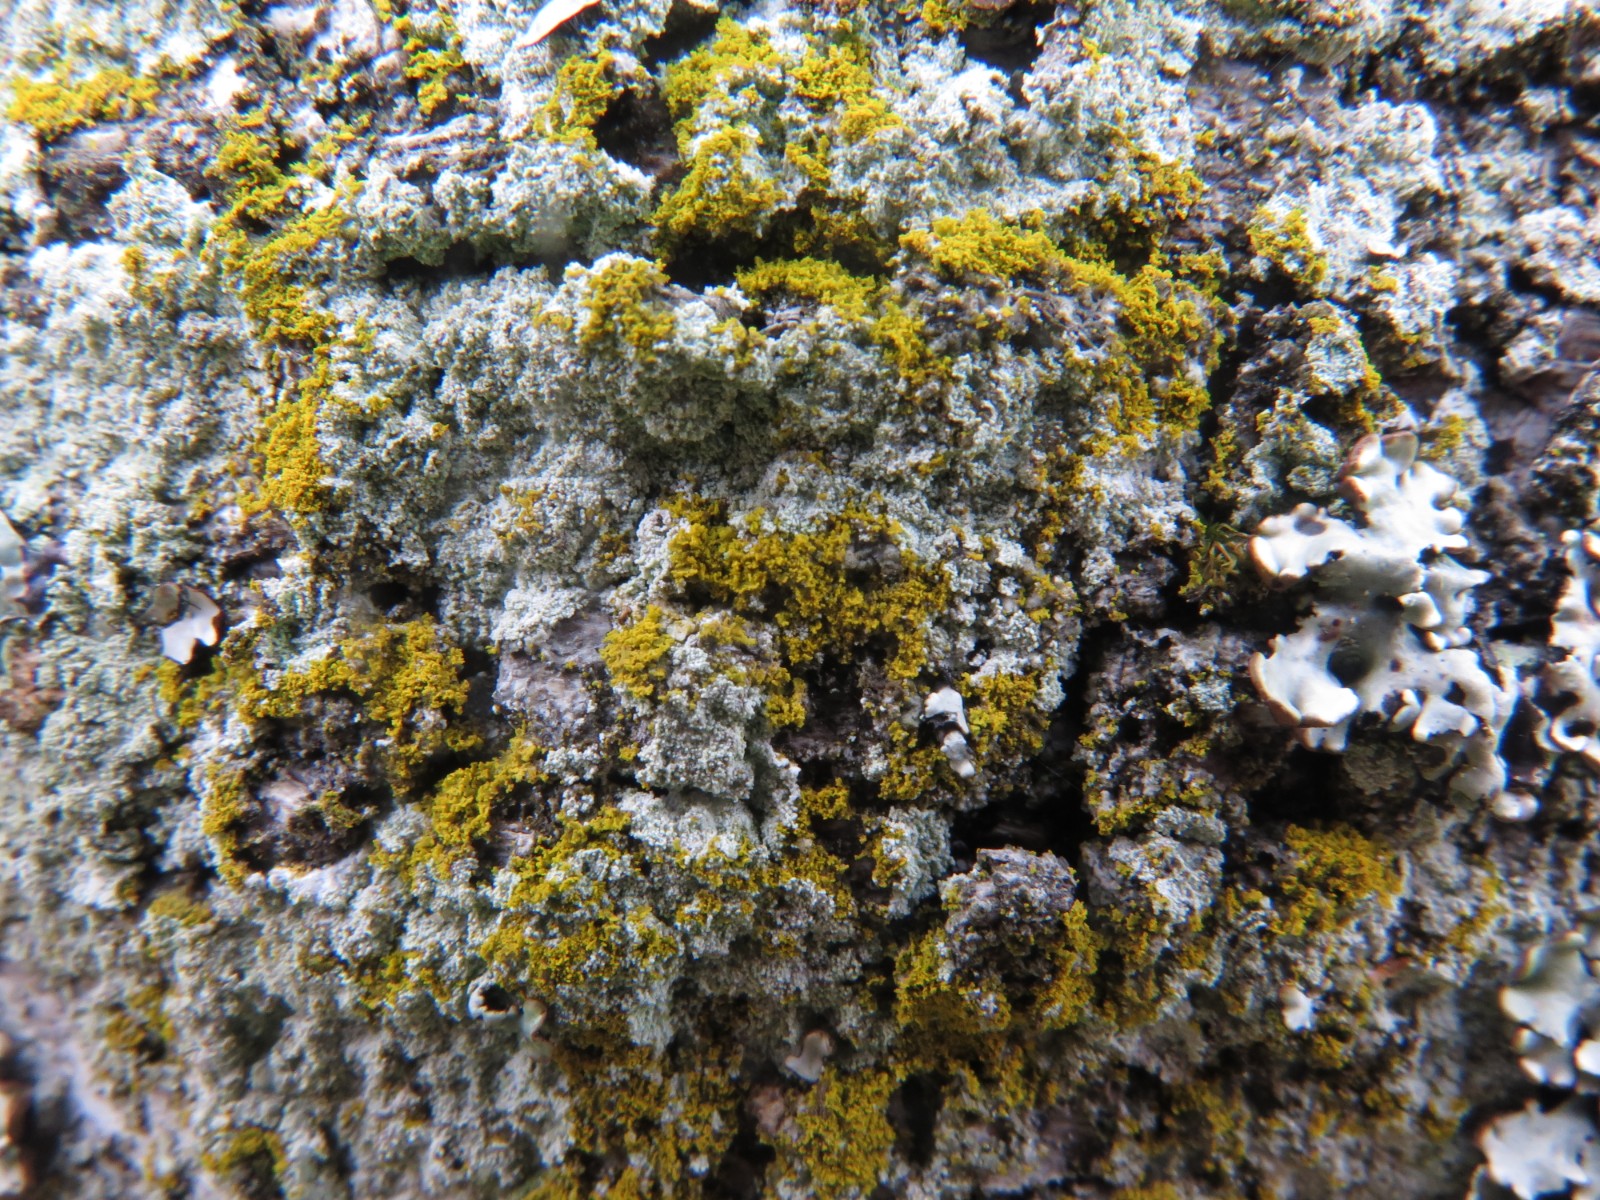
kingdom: Fungi
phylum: Ascomycota
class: Lecanoromycetes
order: Teloschistales
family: Teloschistaceae
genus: Polycauliona
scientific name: Polycauliona candelaria
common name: tue-orangelav
